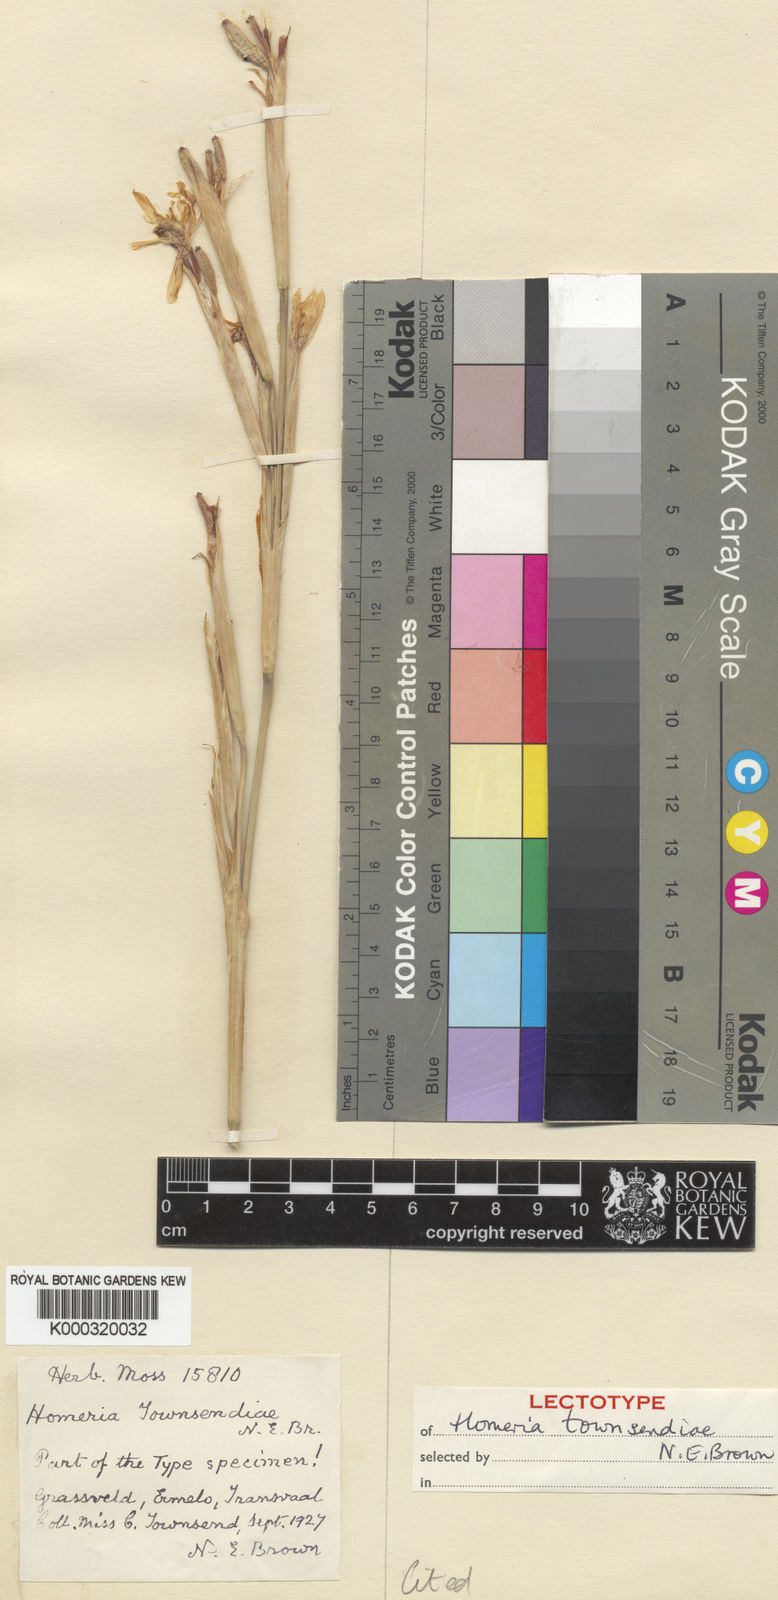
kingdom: Plantae
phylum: Tracheophyta
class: Liliopsida
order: Asparagales
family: Iridaceae
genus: Moraea
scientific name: Moraea pallida
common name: Yellow tulp
